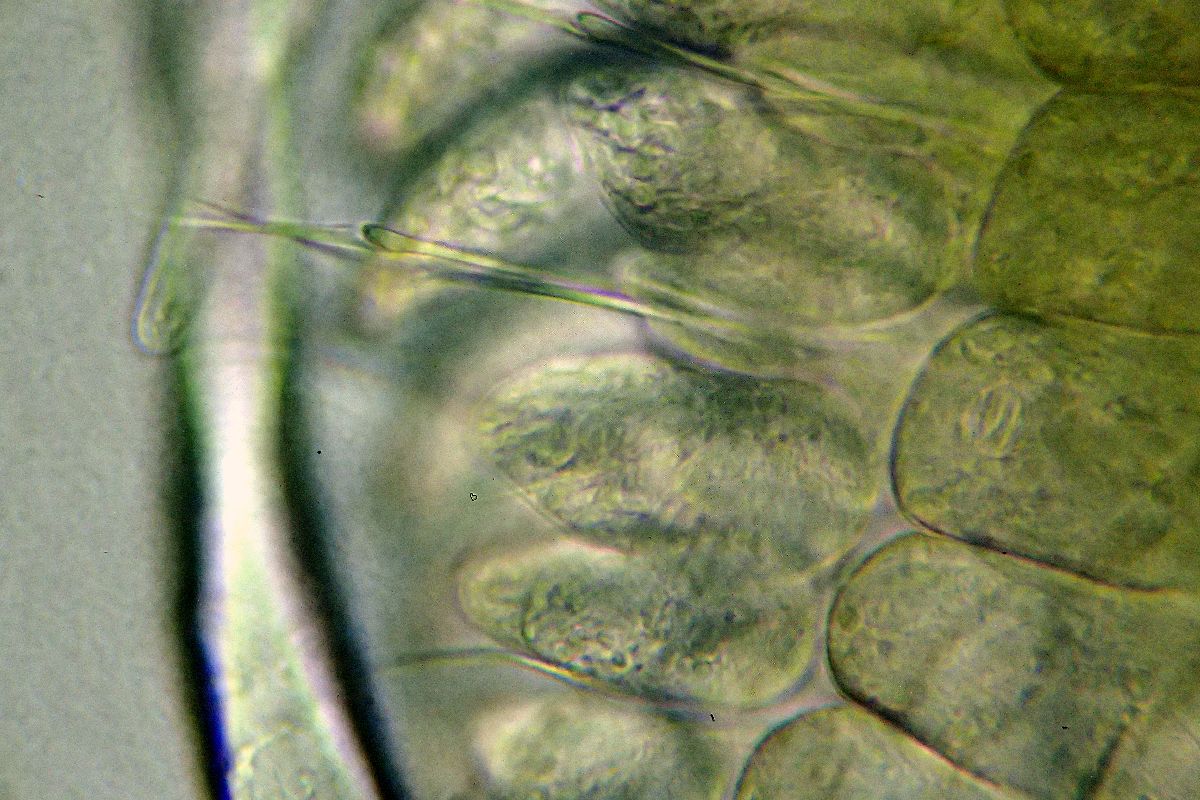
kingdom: Animalia
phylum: Annelida
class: Polychaeta
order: Phyllodocida
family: Phyllodocidae
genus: Phyllodoce
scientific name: Phyllodoce maculata
